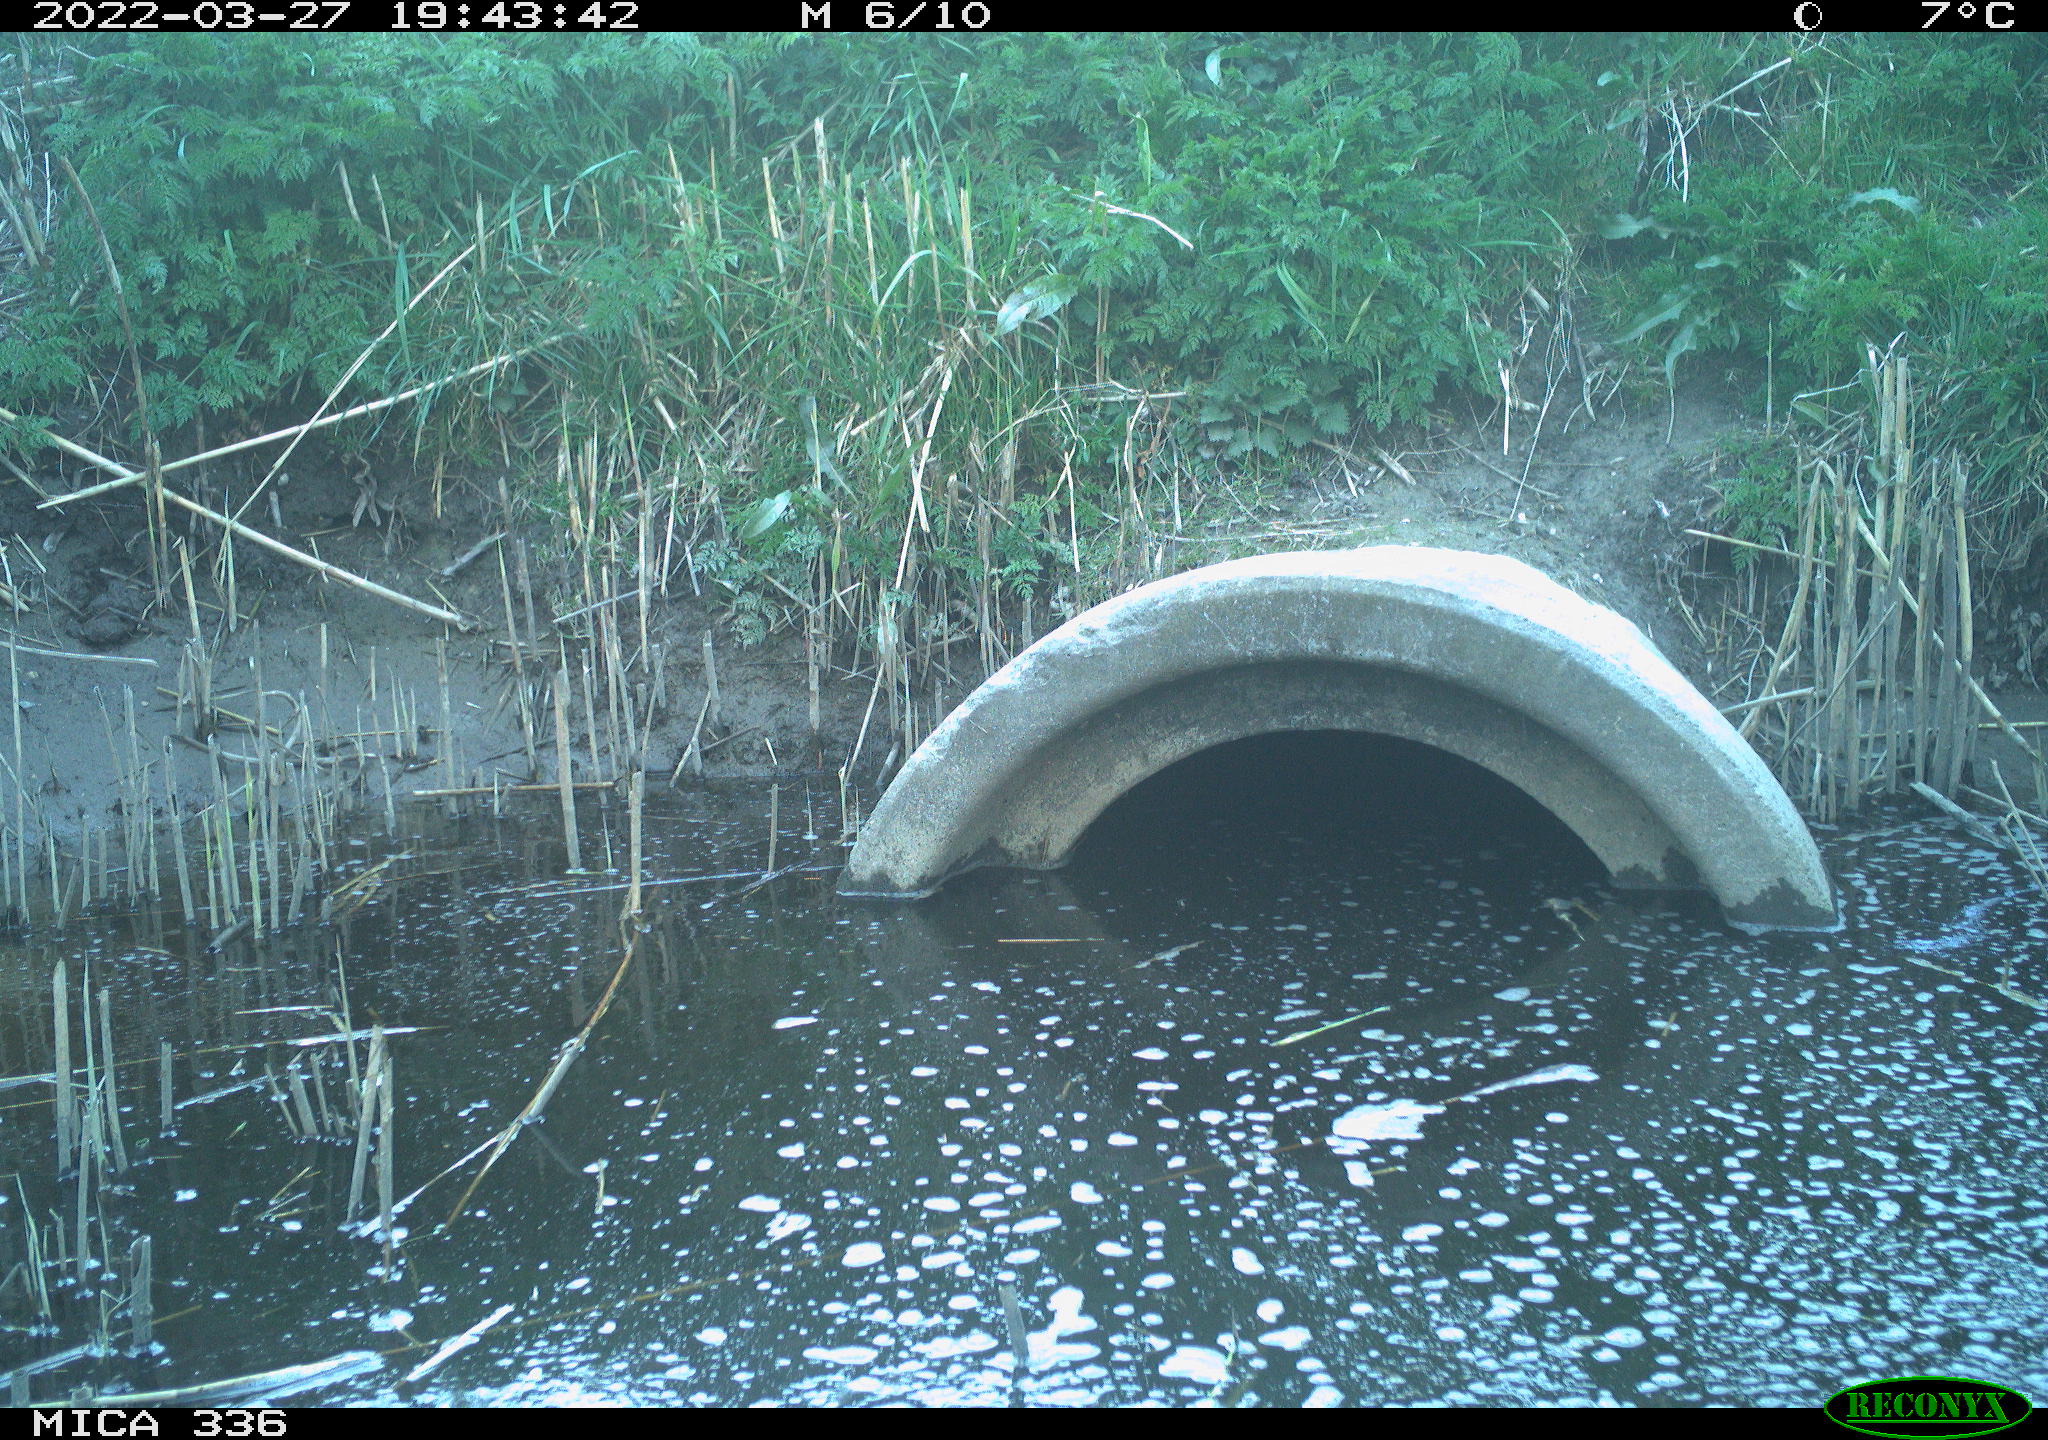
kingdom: Animalia
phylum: Chordata
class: Aves
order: Pelecaniformes
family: Ardeidae
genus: Ardea
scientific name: Ardea cinerea
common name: Grey heron
